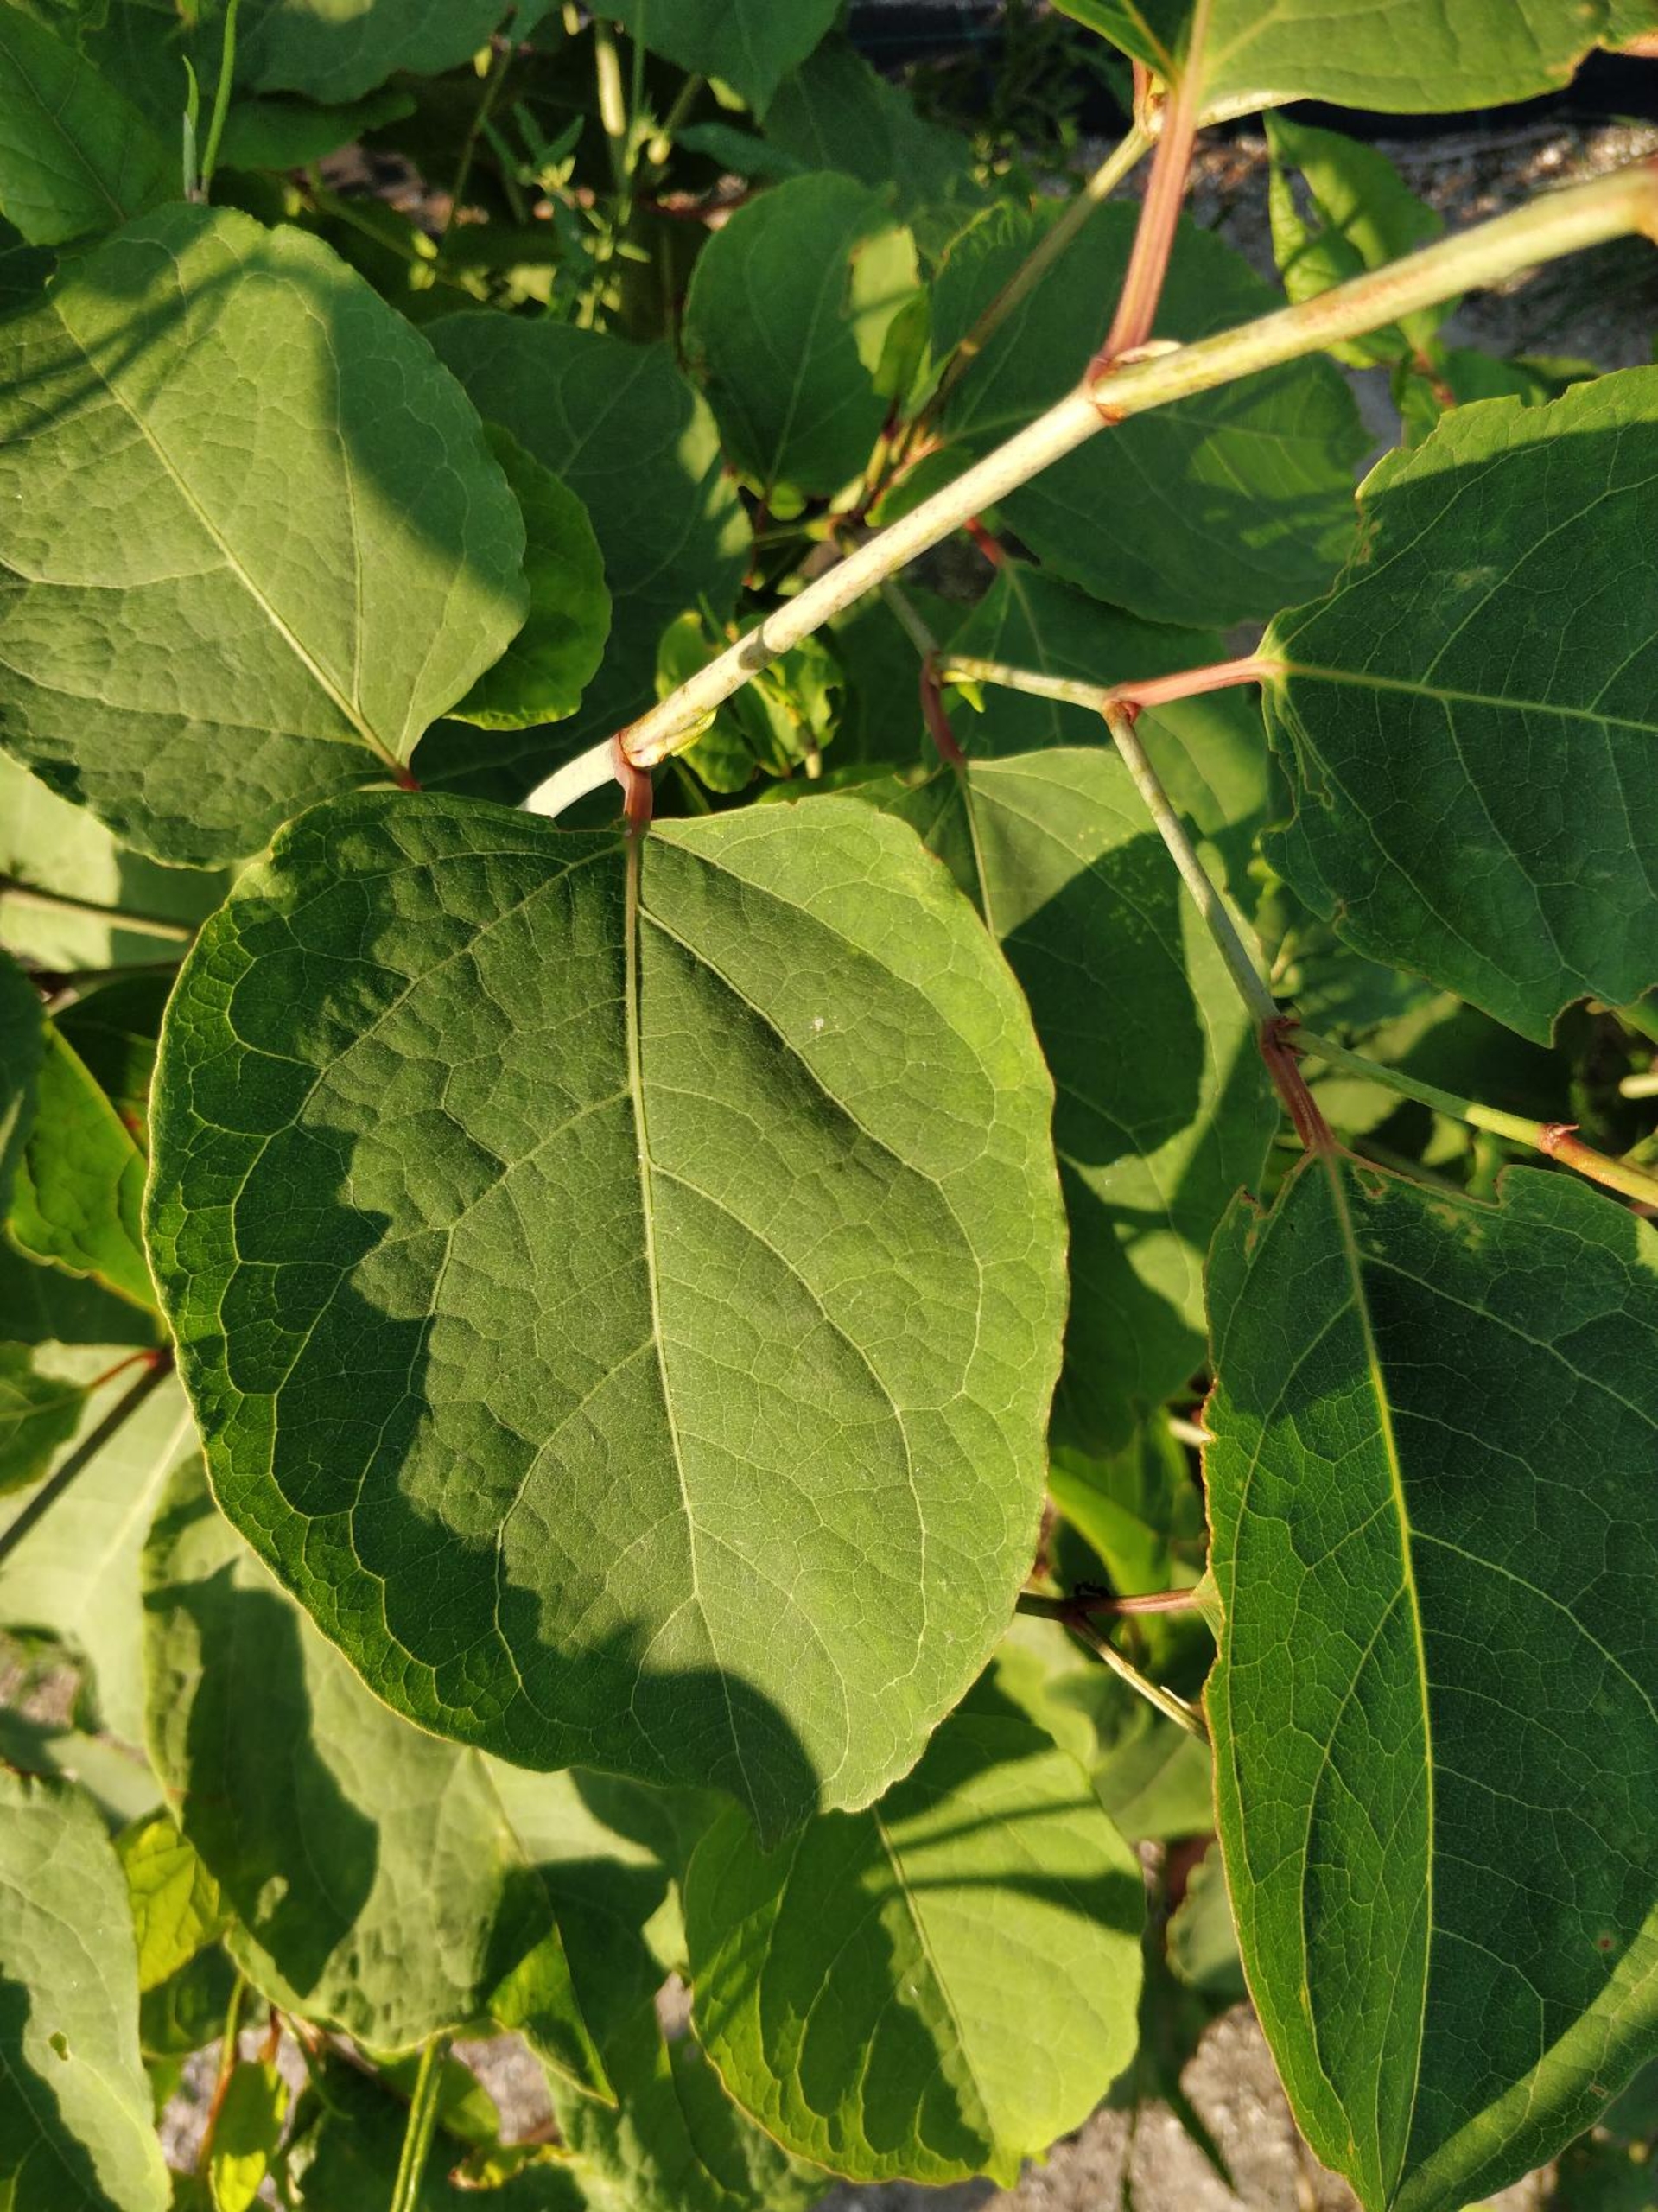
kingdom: Plantae
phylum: Tracheophyta
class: Magnoliopsida
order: Caryophyllales
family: Polygonaceae
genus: Reynoutria
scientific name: Reynoutria japonica
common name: Japan-pileurt
